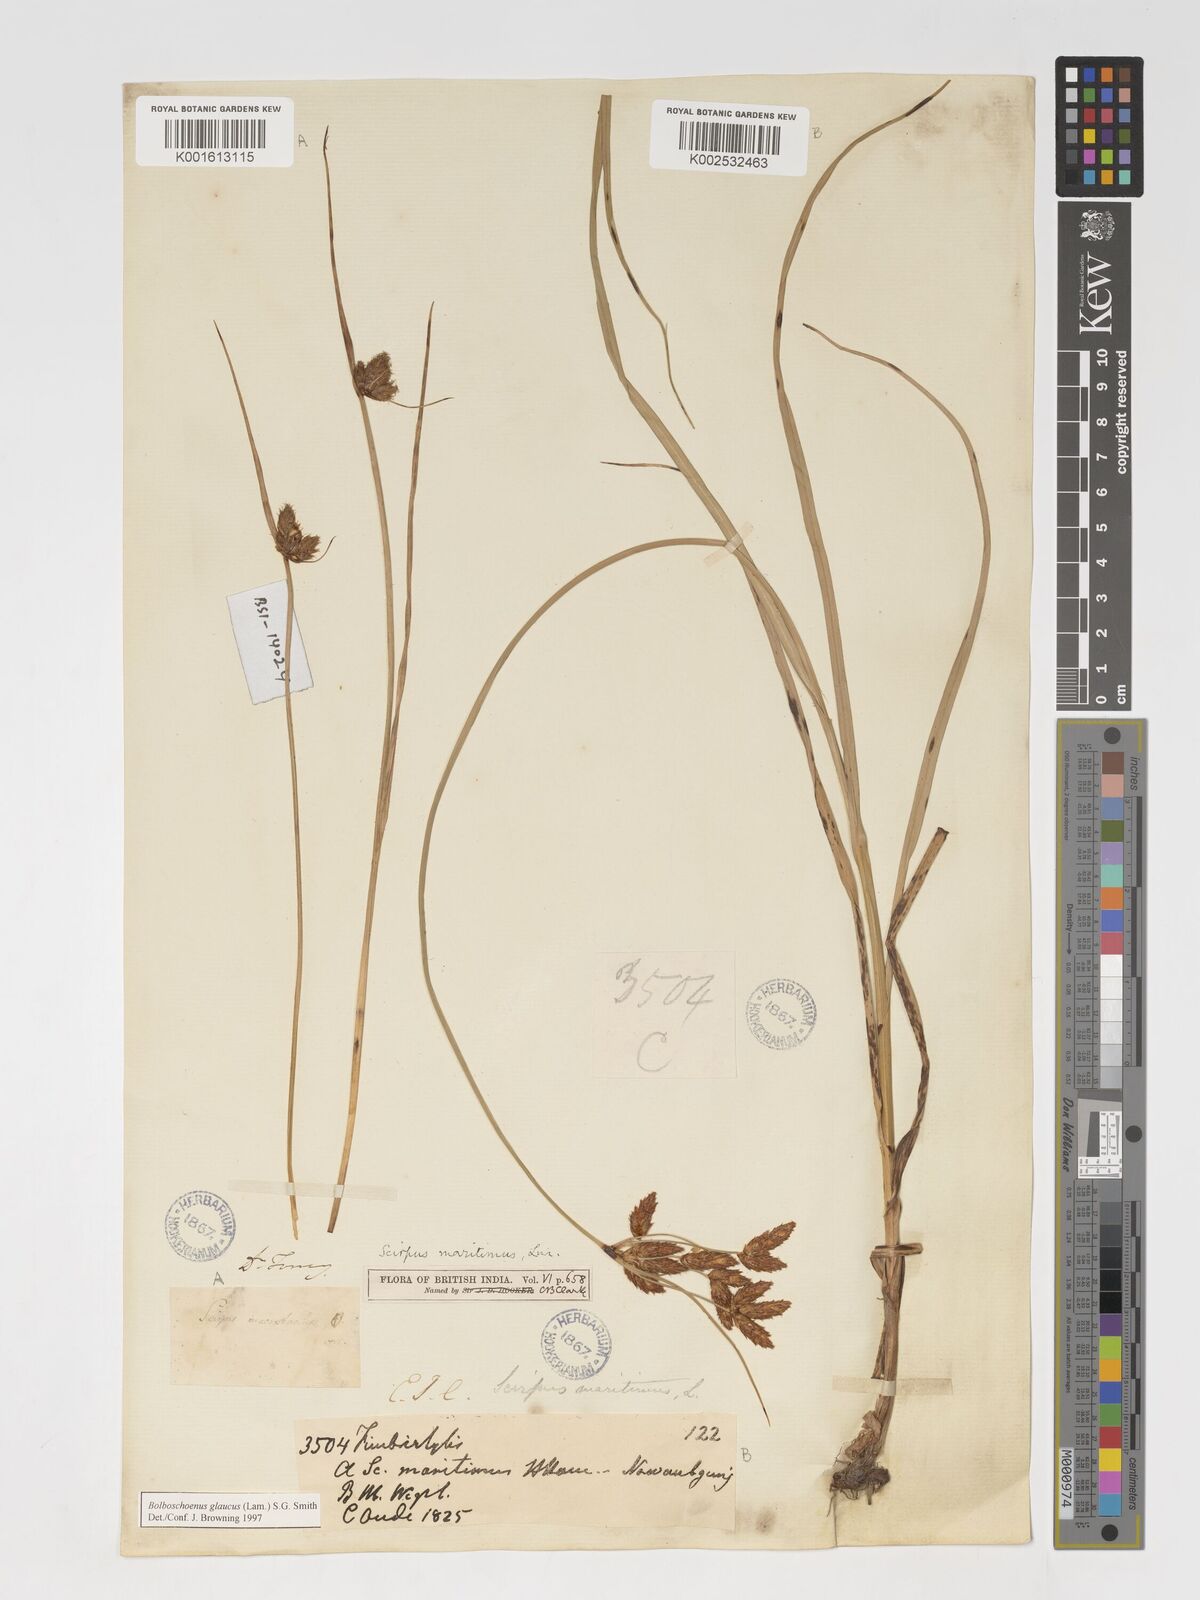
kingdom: Plantae
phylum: Tracheophyta
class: Liliopsida
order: Poales
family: Cyperaceae
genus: Bolboschoenus
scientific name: Bolboschoenus maritimus
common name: Sea club-rush
